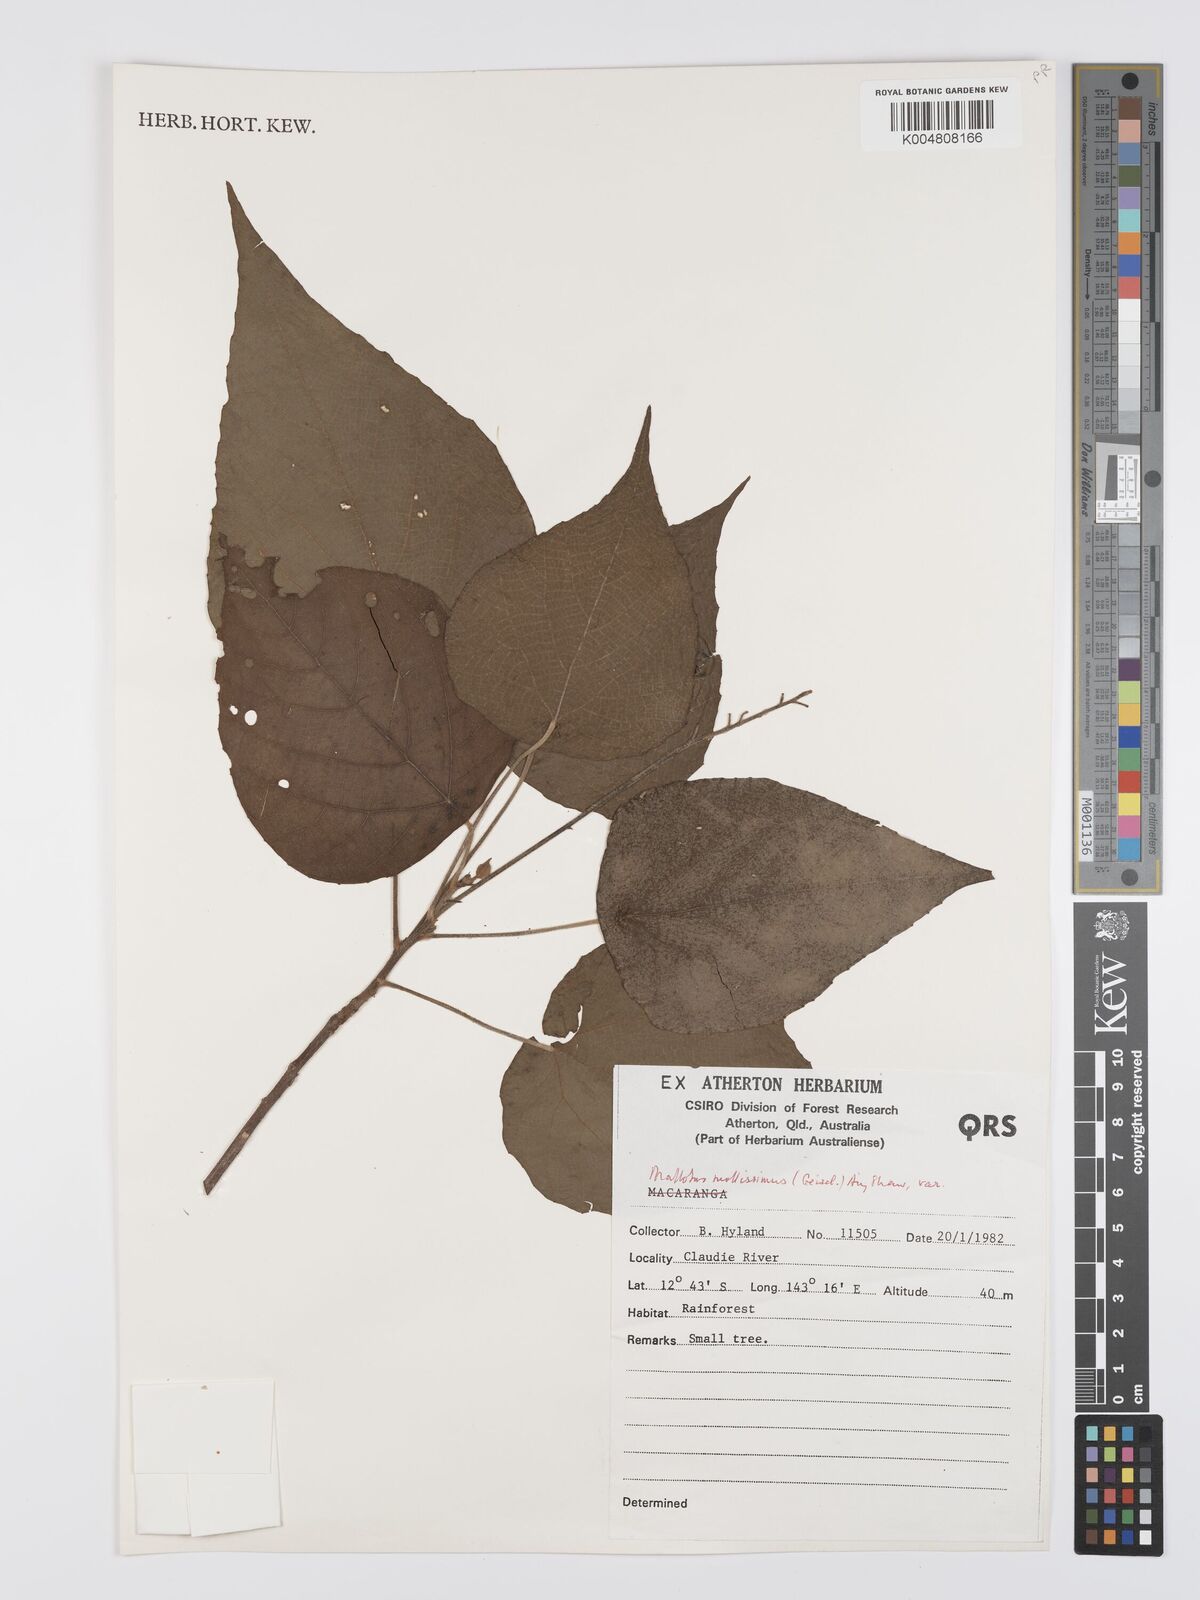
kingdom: Plantae
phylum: Tracheophyta
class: Magnoliopsida
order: Malpighiales
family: Euphorbiaceae
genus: Mallotus
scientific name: Mallotus mollissimus
